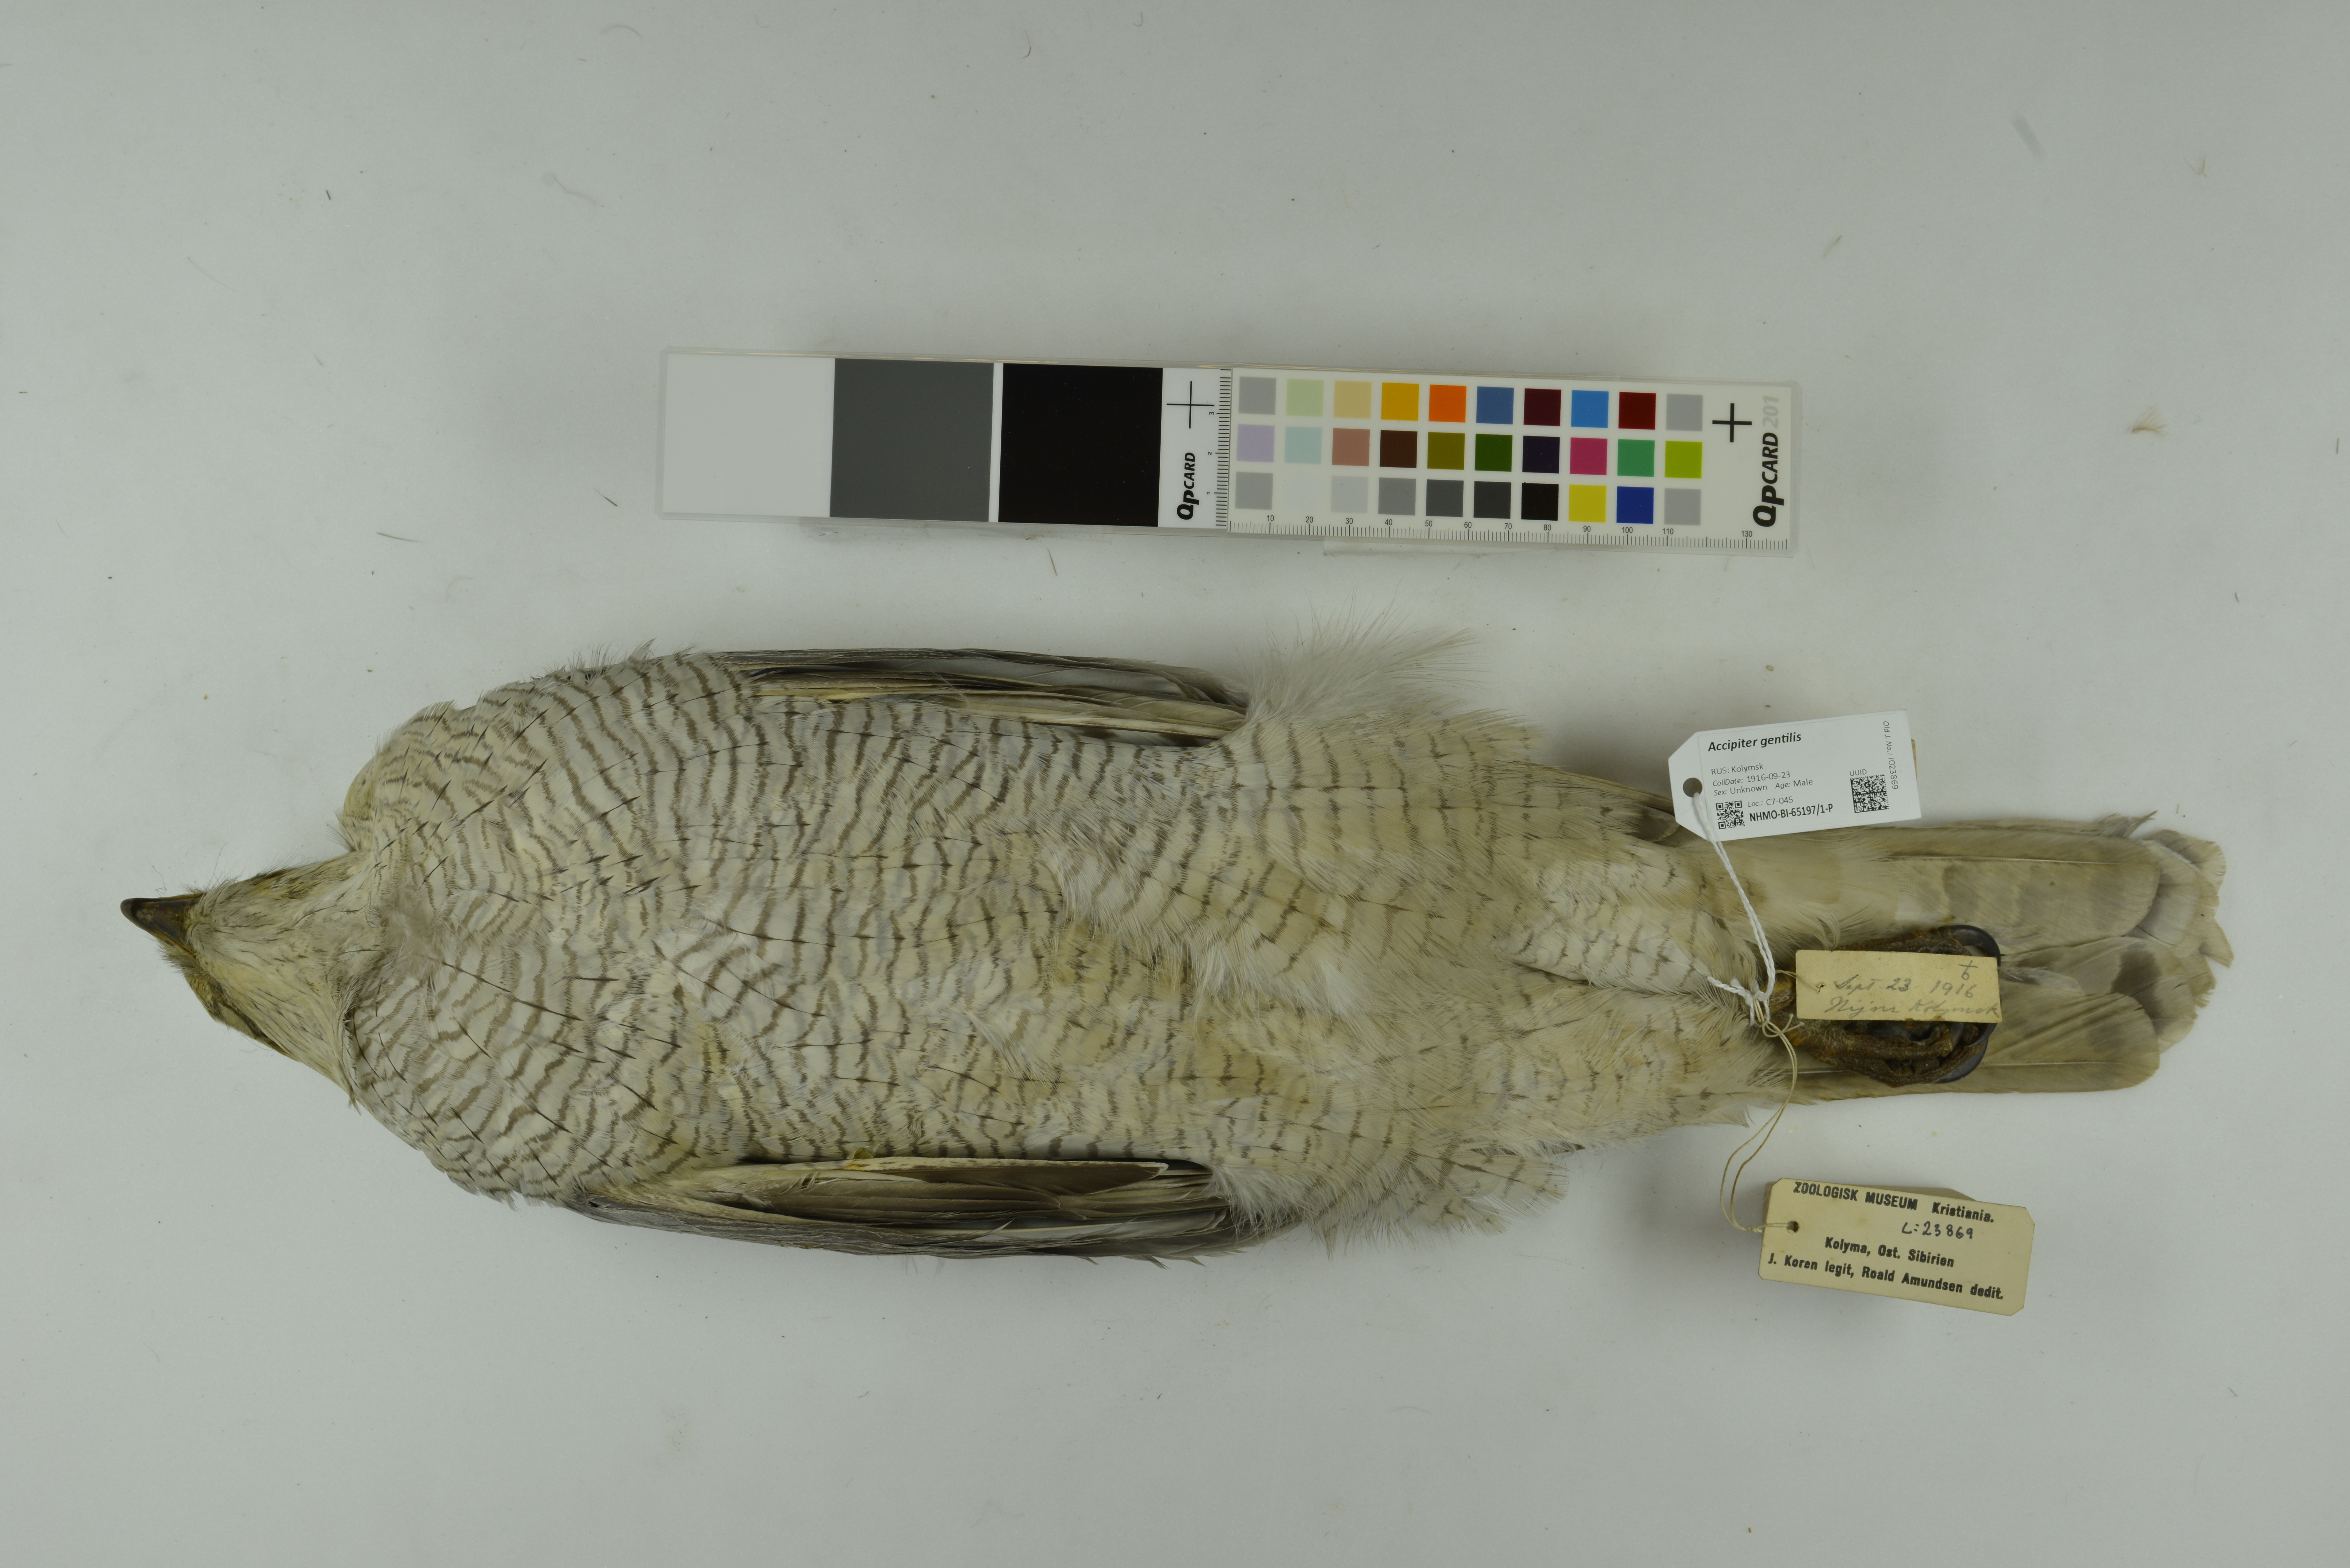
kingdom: Animalia
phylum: Chordata
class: Aves
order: Accipitriformes
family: Accipitridae
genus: Accipiter
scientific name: Accipiter gentilis
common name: Northern goshawk
